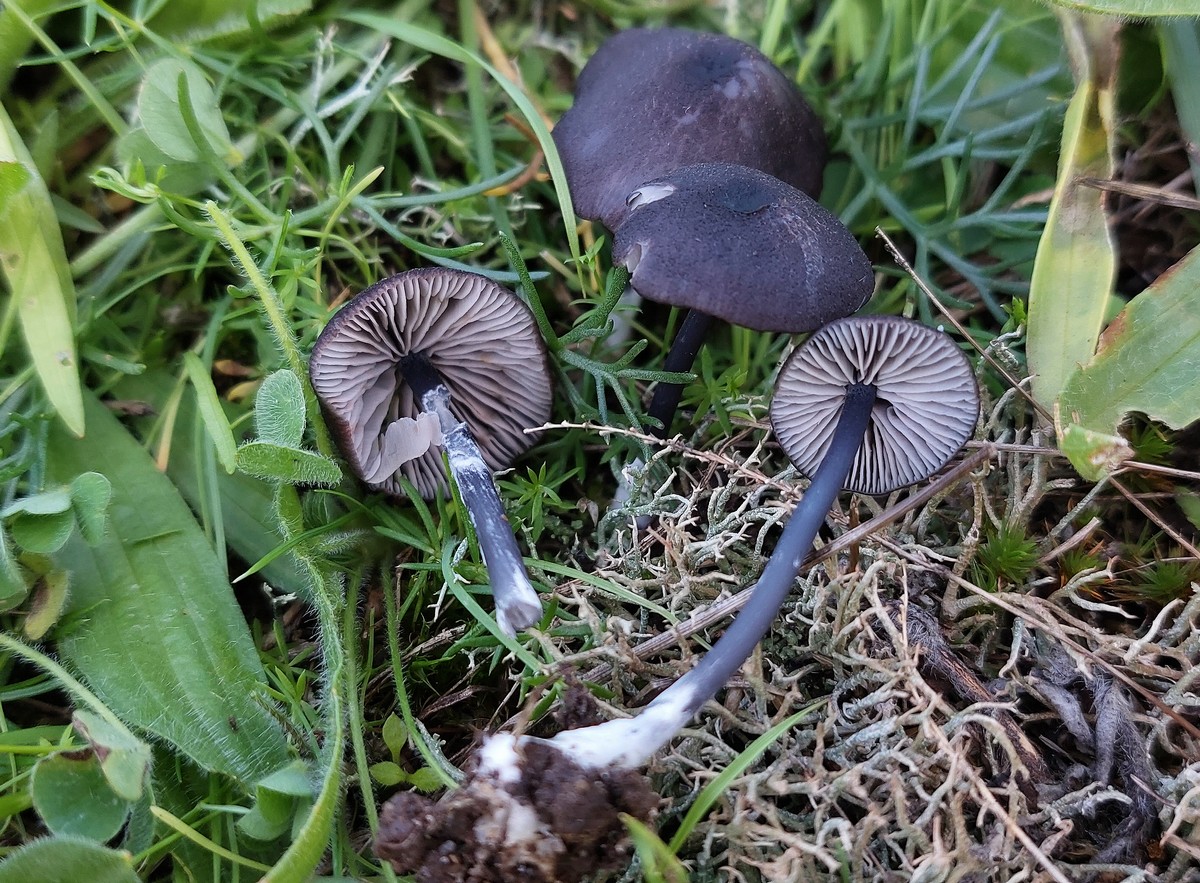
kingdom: Fungi
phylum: Basidiomycota
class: Agaricomycetes
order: Agaricales
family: Entolomataceae
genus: Entoloma
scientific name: Entoloma chalybeum
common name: blåbladet rødblad
